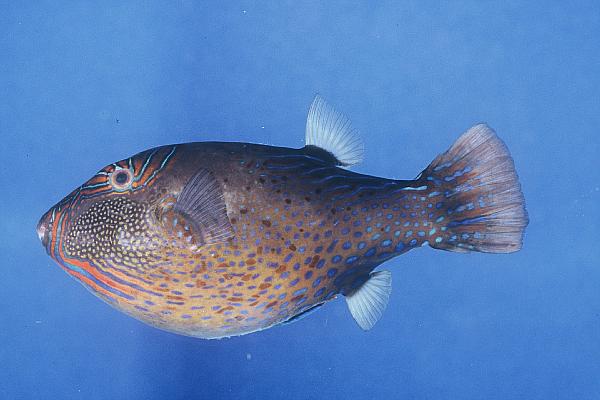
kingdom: Animalia
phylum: Chordata
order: Tetraodontiformes
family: Tetraodontidae
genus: Canthigaster
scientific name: Canthigaster amboinensis
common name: Ambon pufferfish
